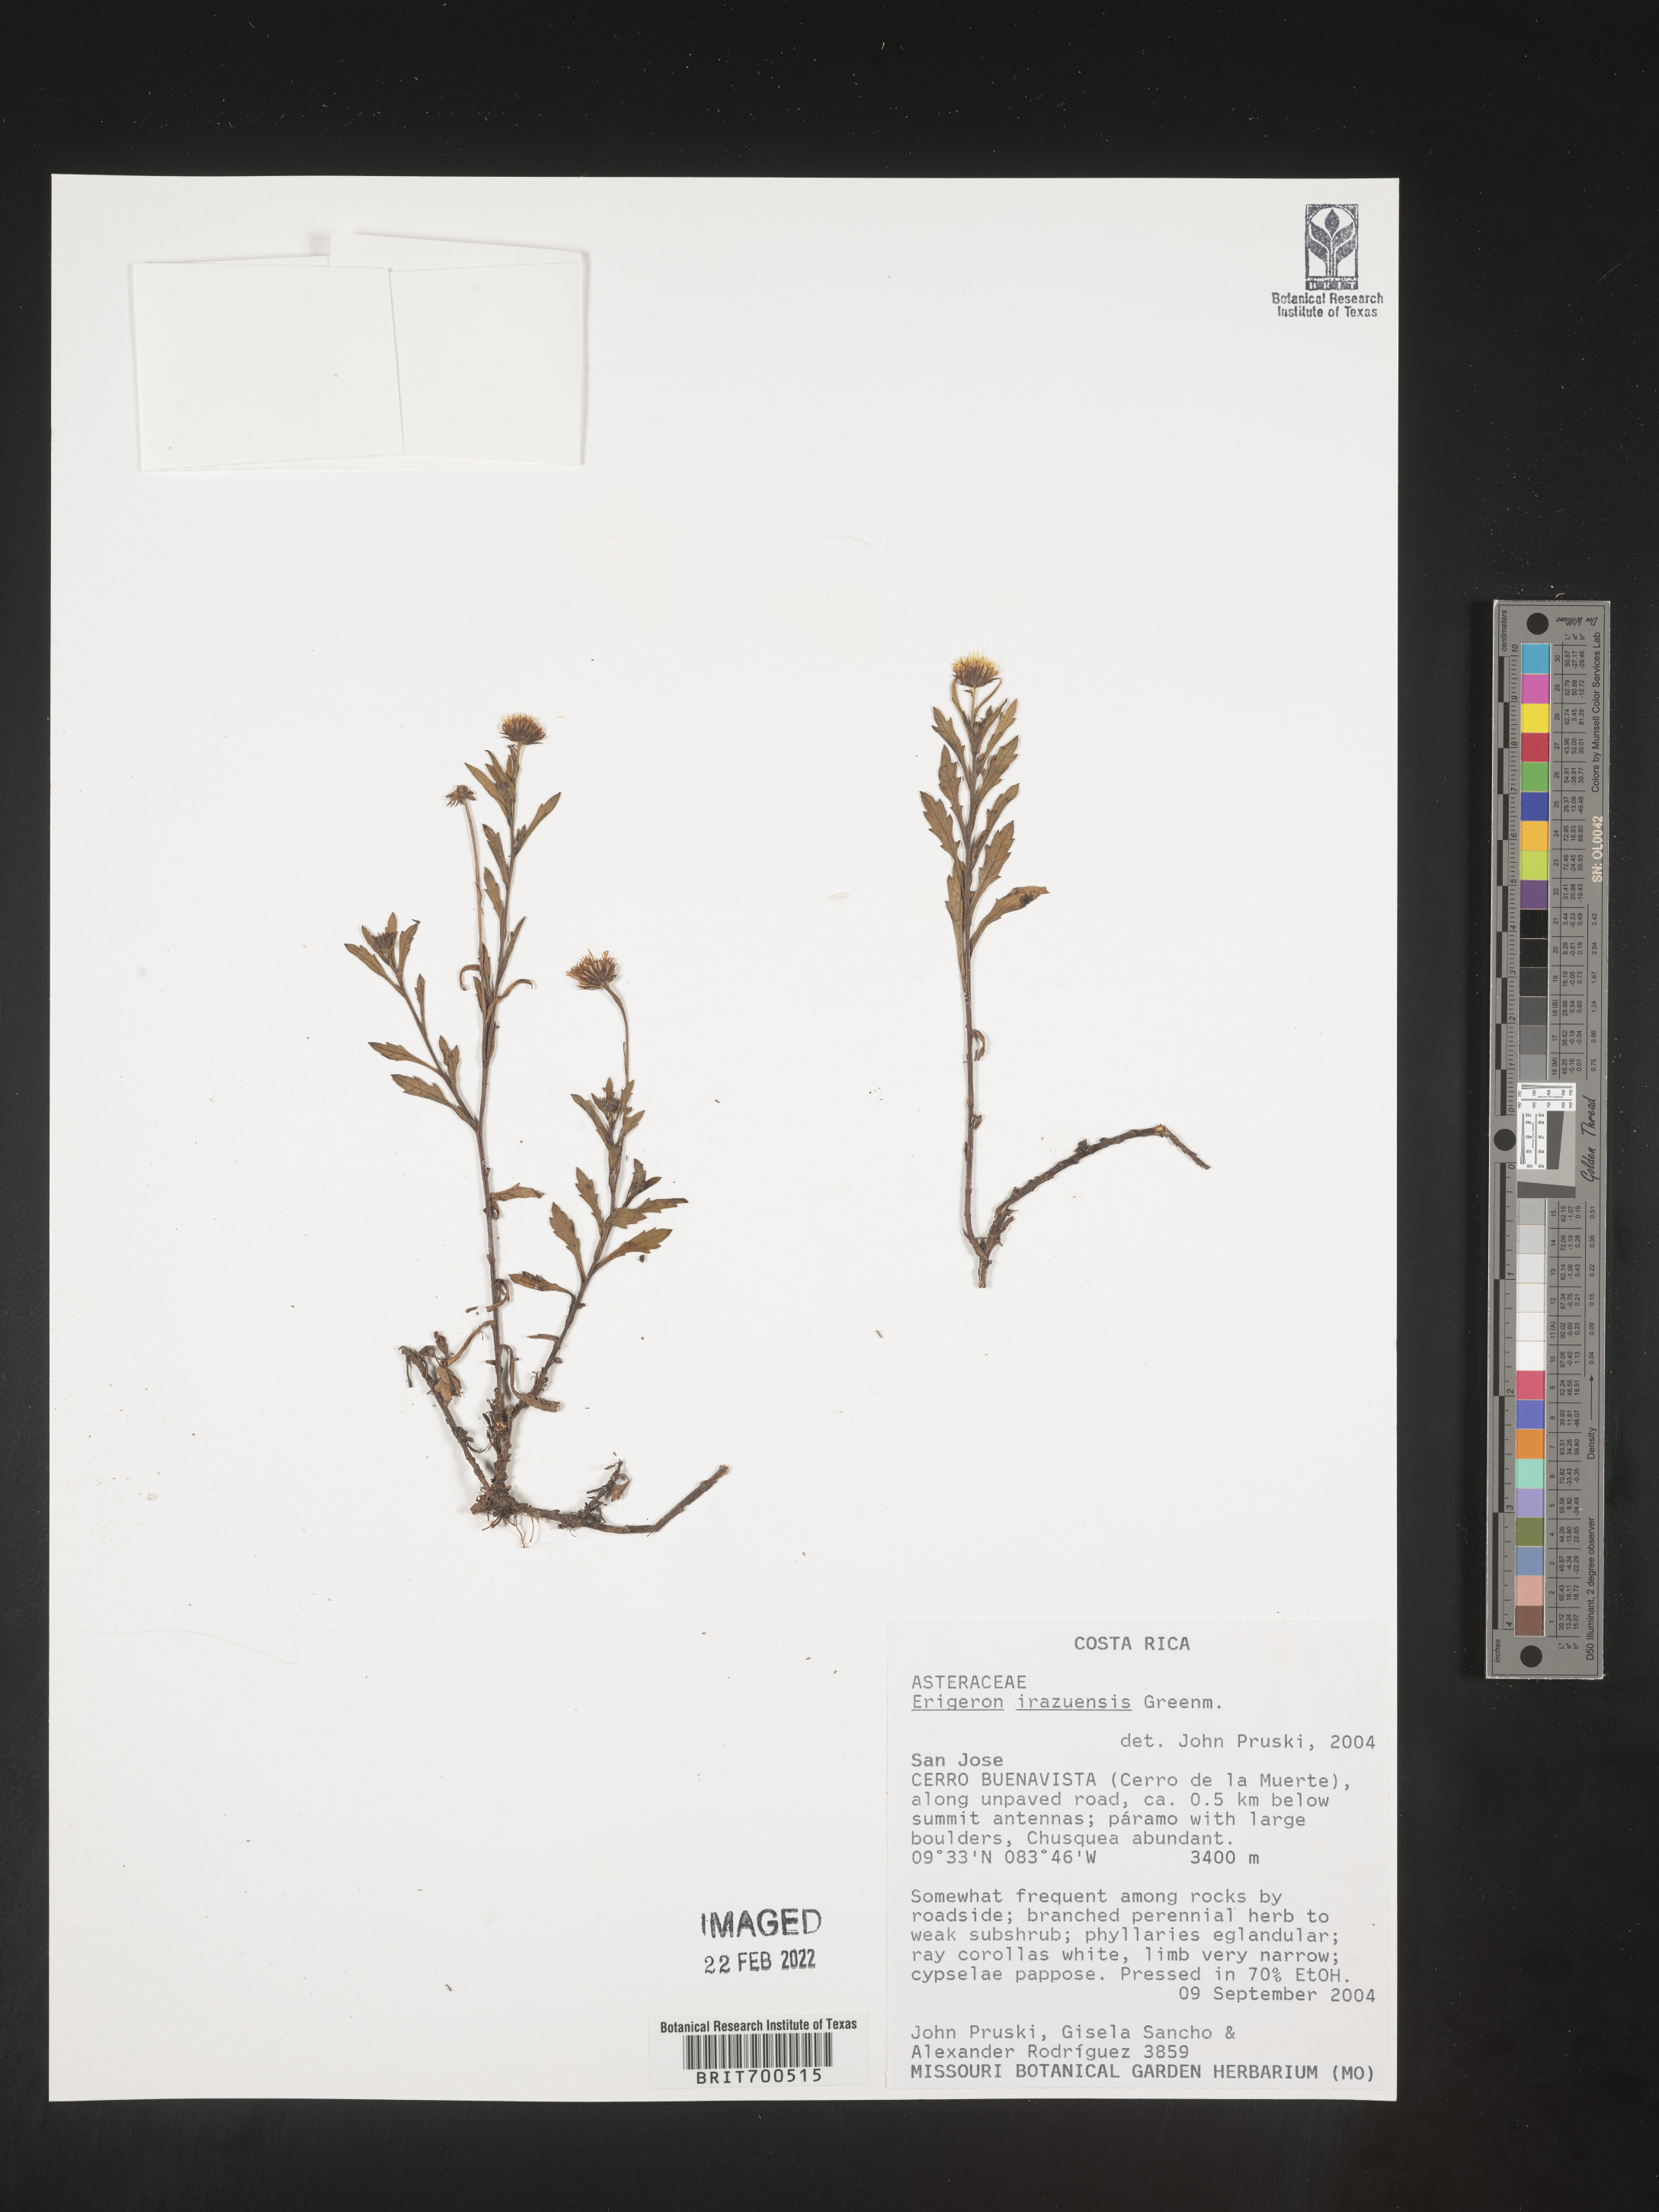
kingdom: Plantae
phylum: Tracheophyta
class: Magnoliopsida
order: Asterales
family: Asteraceae
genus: Erigeron
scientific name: Erigeron
